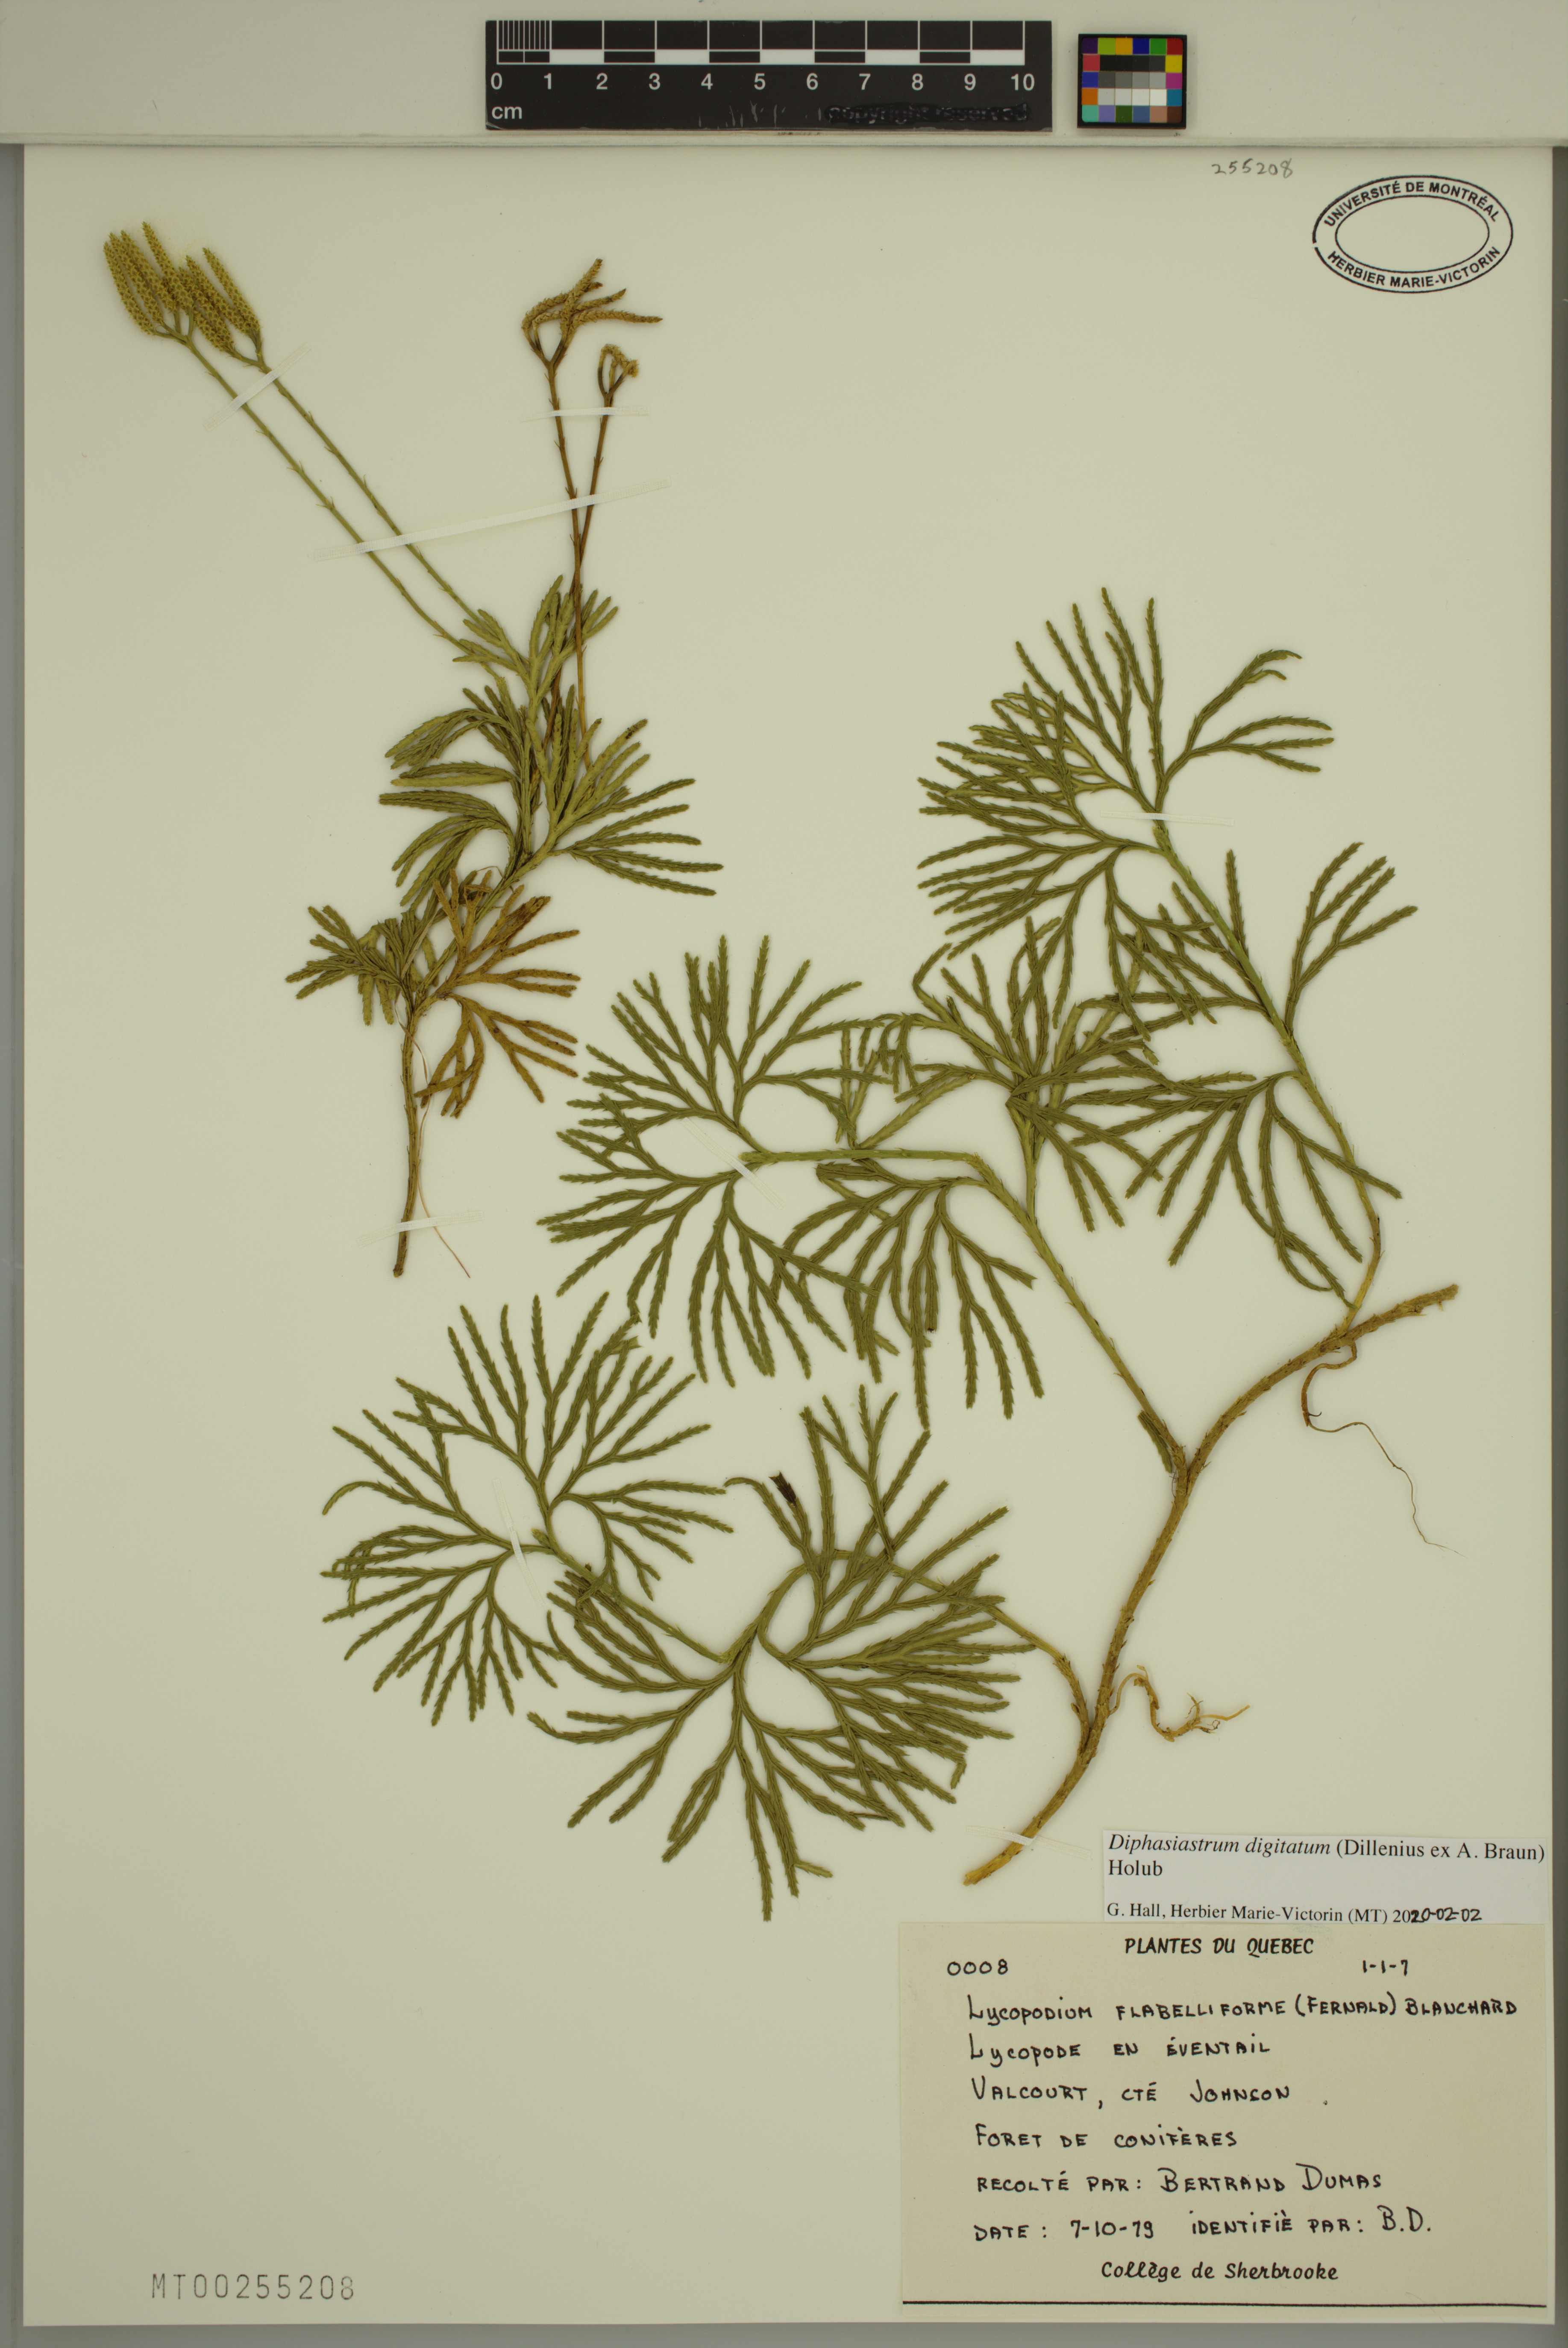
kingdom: Plantae
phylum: Tracheophyta
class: Lycopodiopsida
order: Lycopodiales
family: Lycopodiaceae
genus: Diphasiastrum
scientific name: Diphasiastrum digitatum
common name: Southern running-pine
